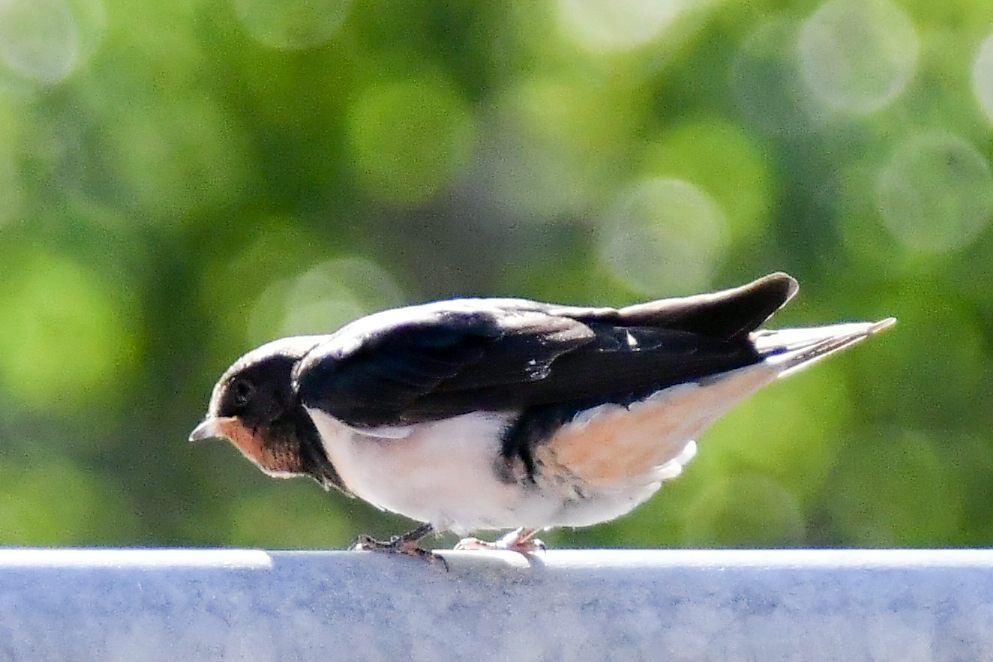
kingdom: Animalia
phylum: Chordata
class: Aves
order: Passeriformes
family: Hirundinidae
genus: Hirundo
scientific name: Hirundo rustica
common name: Landsvale
